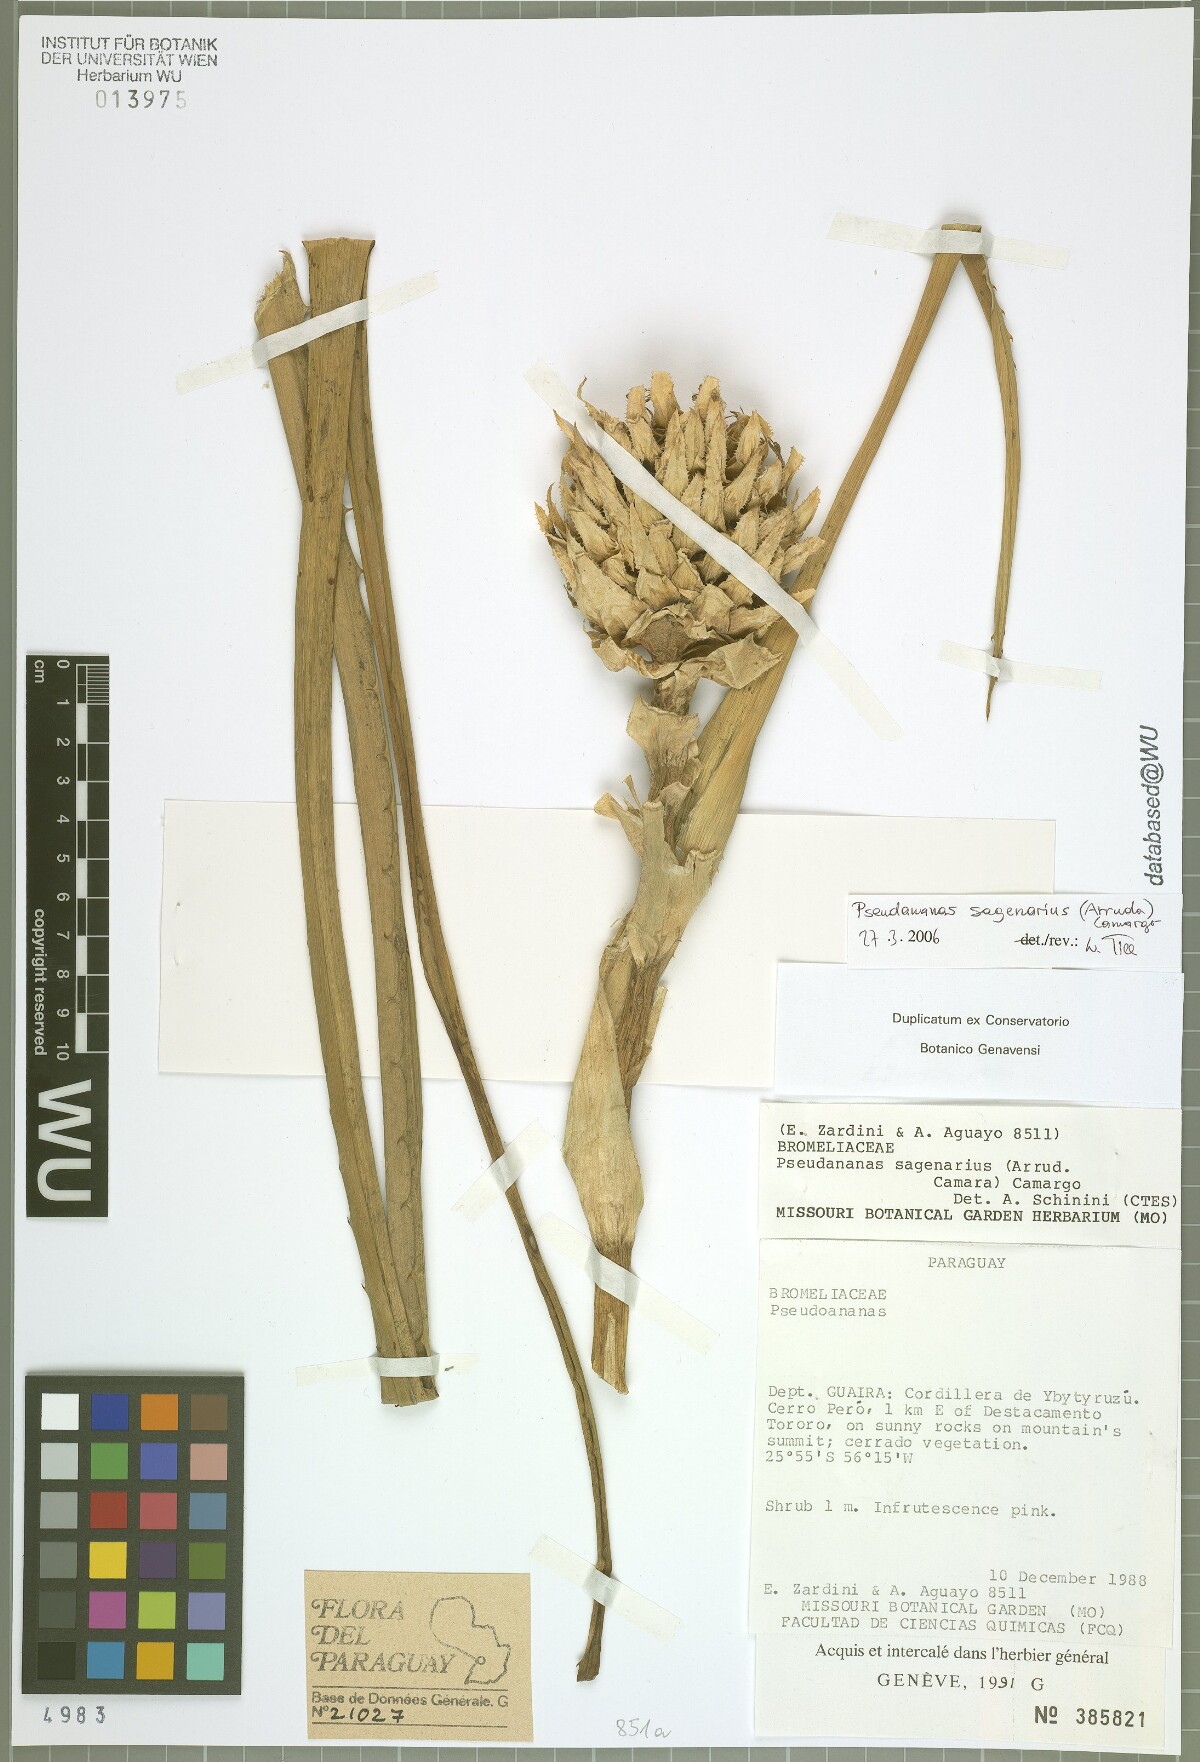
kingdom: Plantae
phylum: Tracheophyta
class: Liliopsida
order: Poales
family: Bromeliaceae
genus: Ananas
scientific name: Ananas comosus
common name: Pineapple
